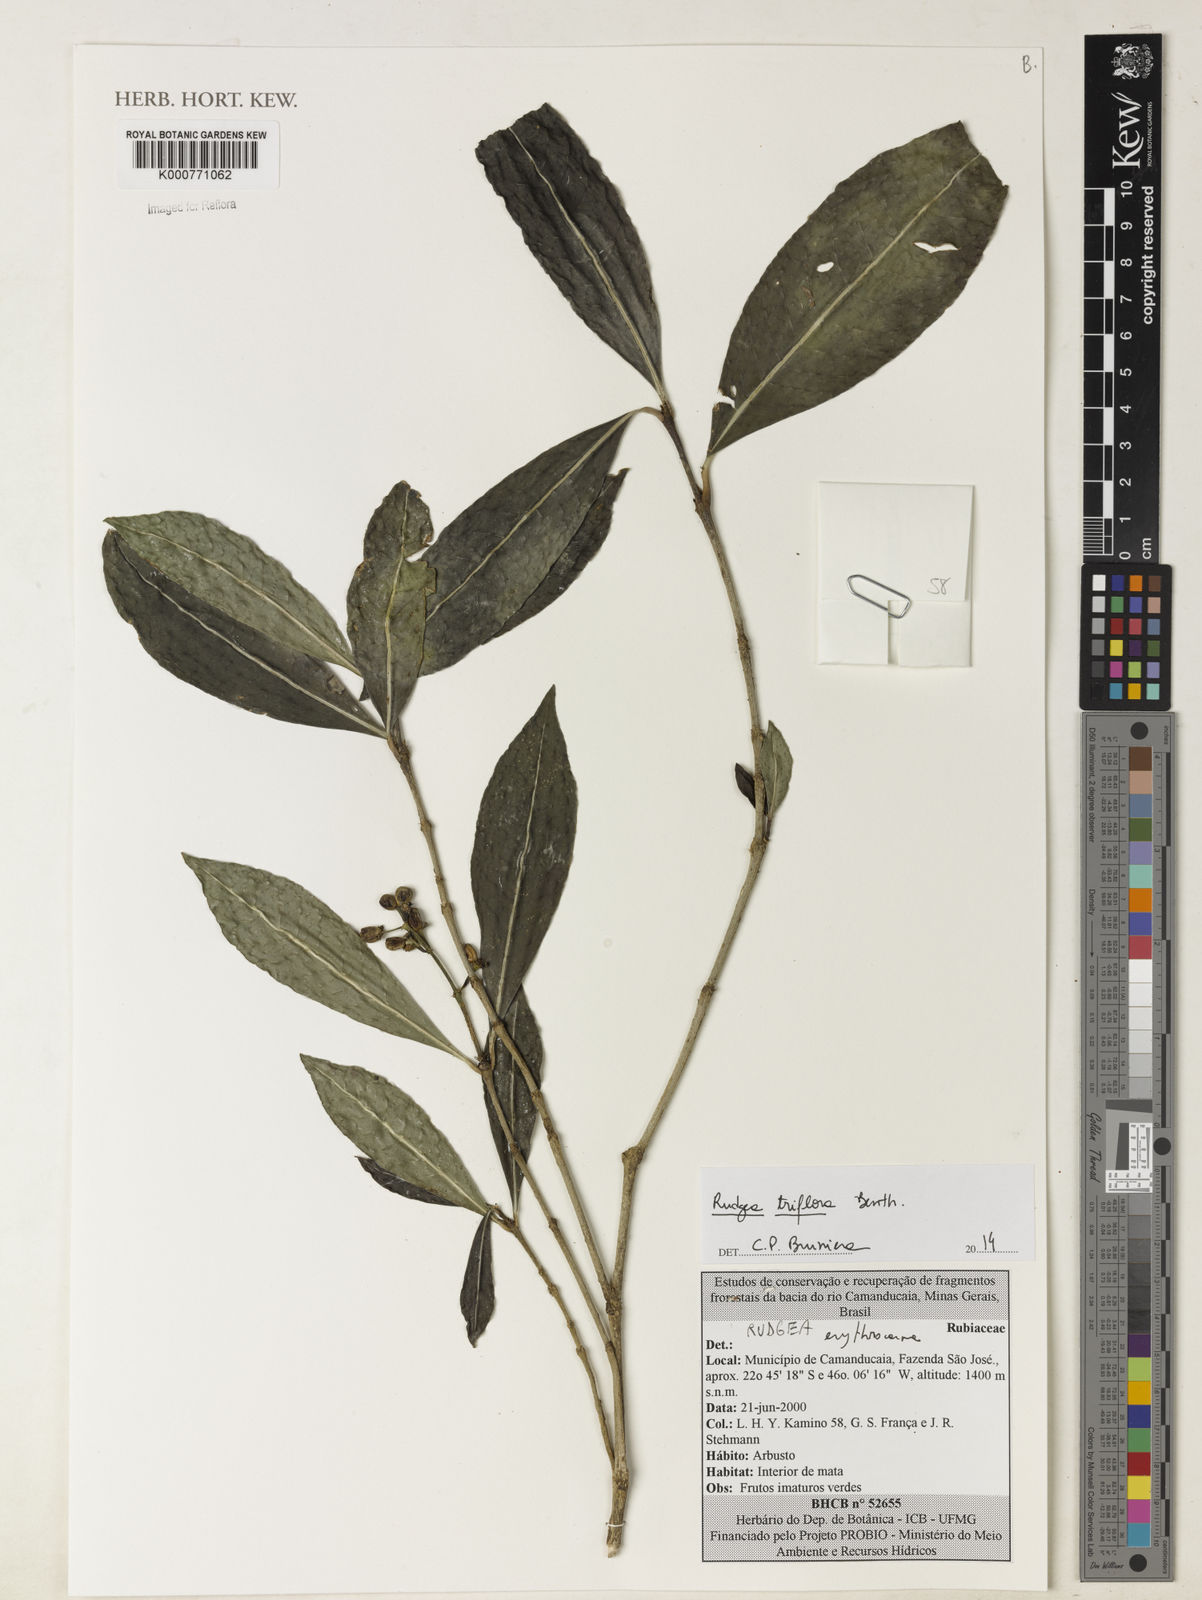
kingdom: Plantae
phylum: Tracheophyta
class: Magnoliopsida
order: Gentianales
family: Rubiaceae
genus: Rudgea
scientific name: Rudgea triflora
